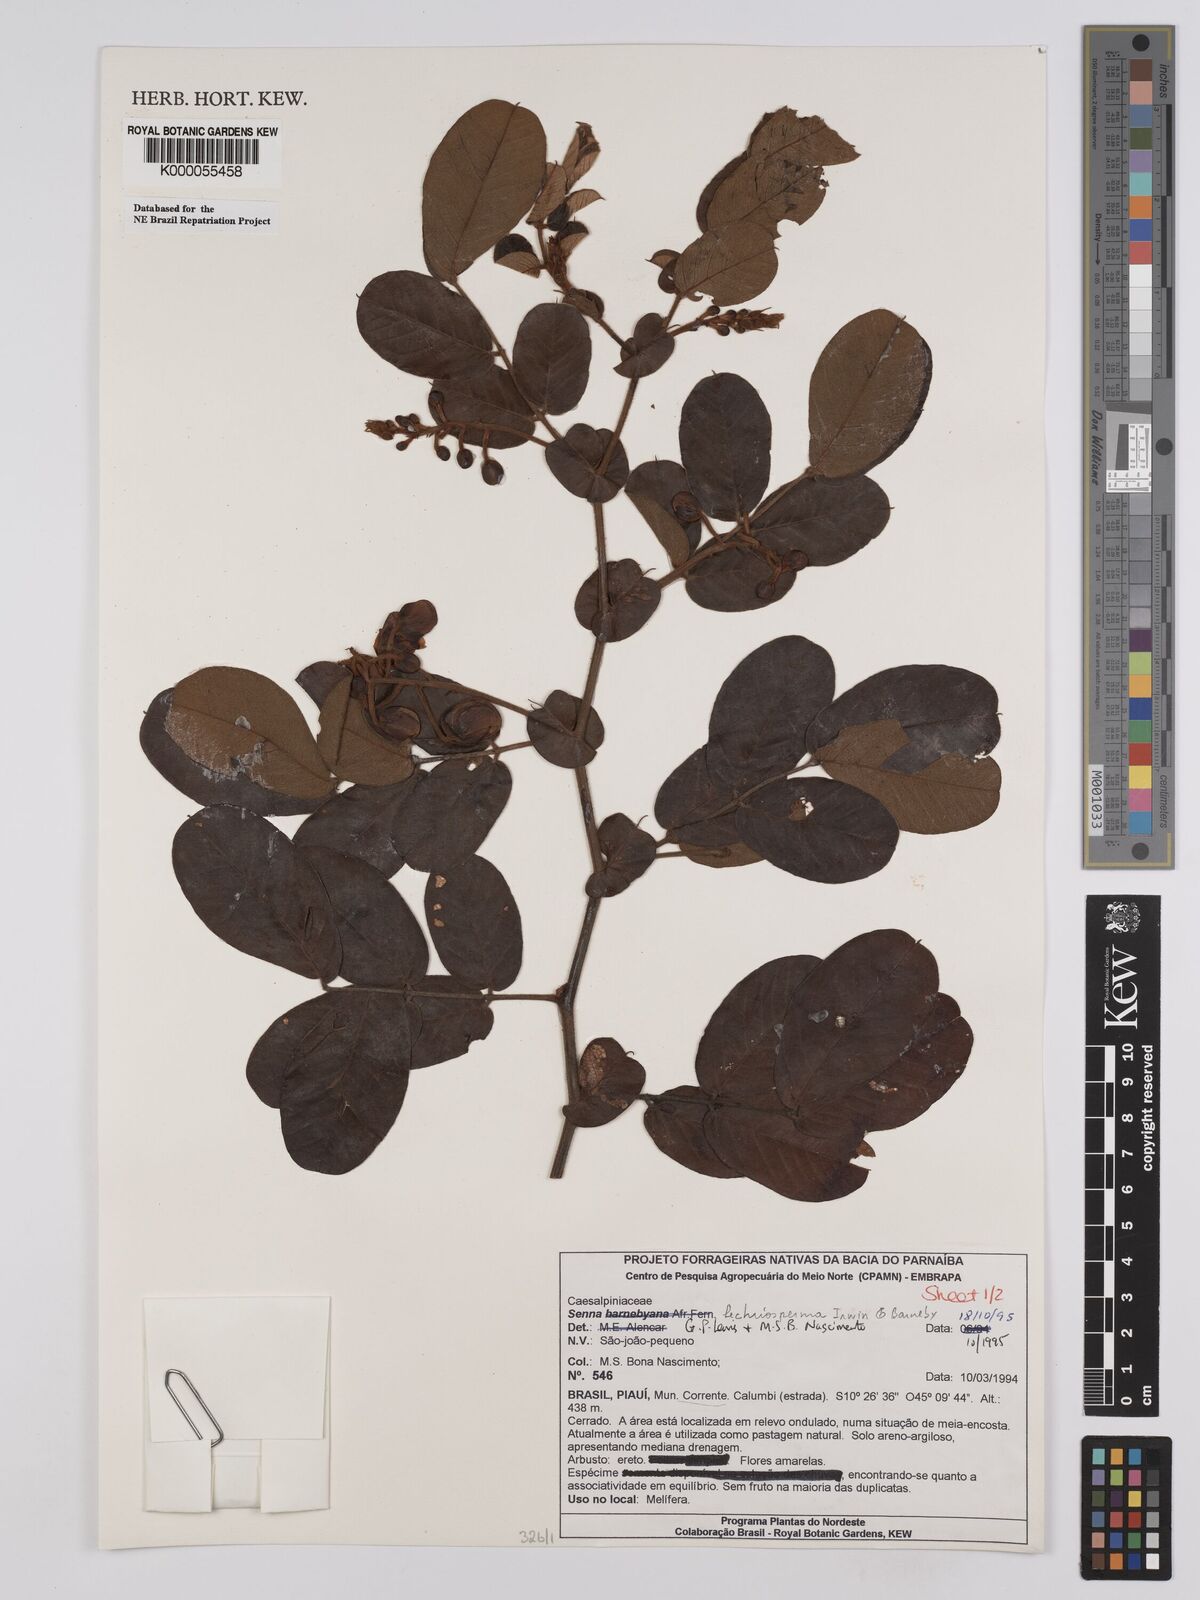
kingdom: Plantae
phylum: Tracheophyta
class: Magnoliopsida
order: Fabales
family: Fabaceae
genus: Senna
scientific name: Senna lechriosperma
